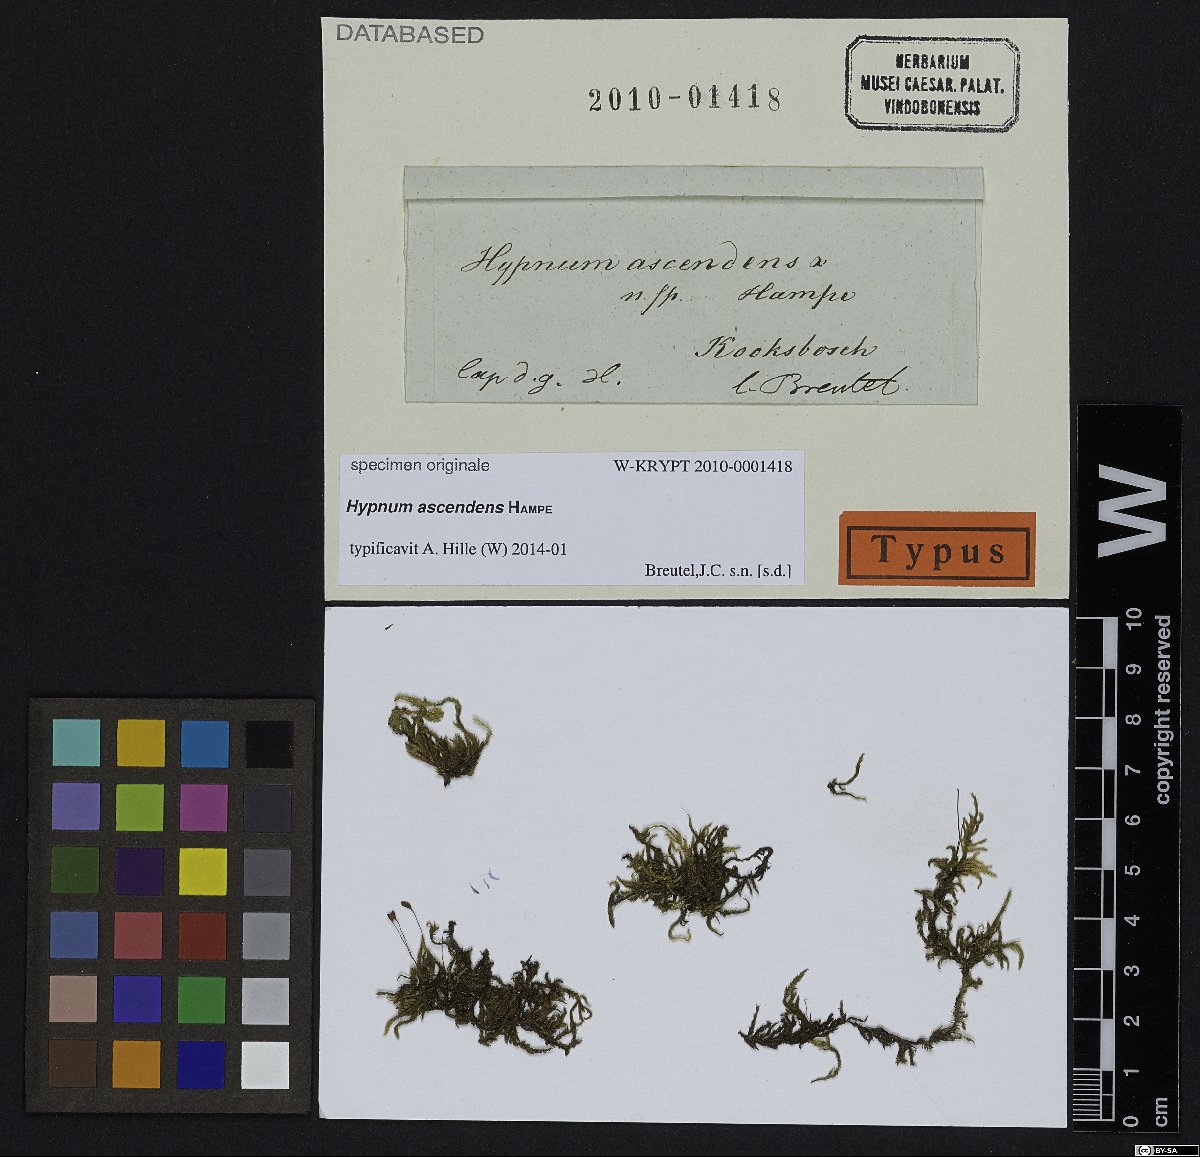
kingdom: Plantae
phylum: Bryophyta
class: Bryopsida
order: Hypnales
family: Hypnaceae
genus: Hypnum
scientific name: Hypnum
